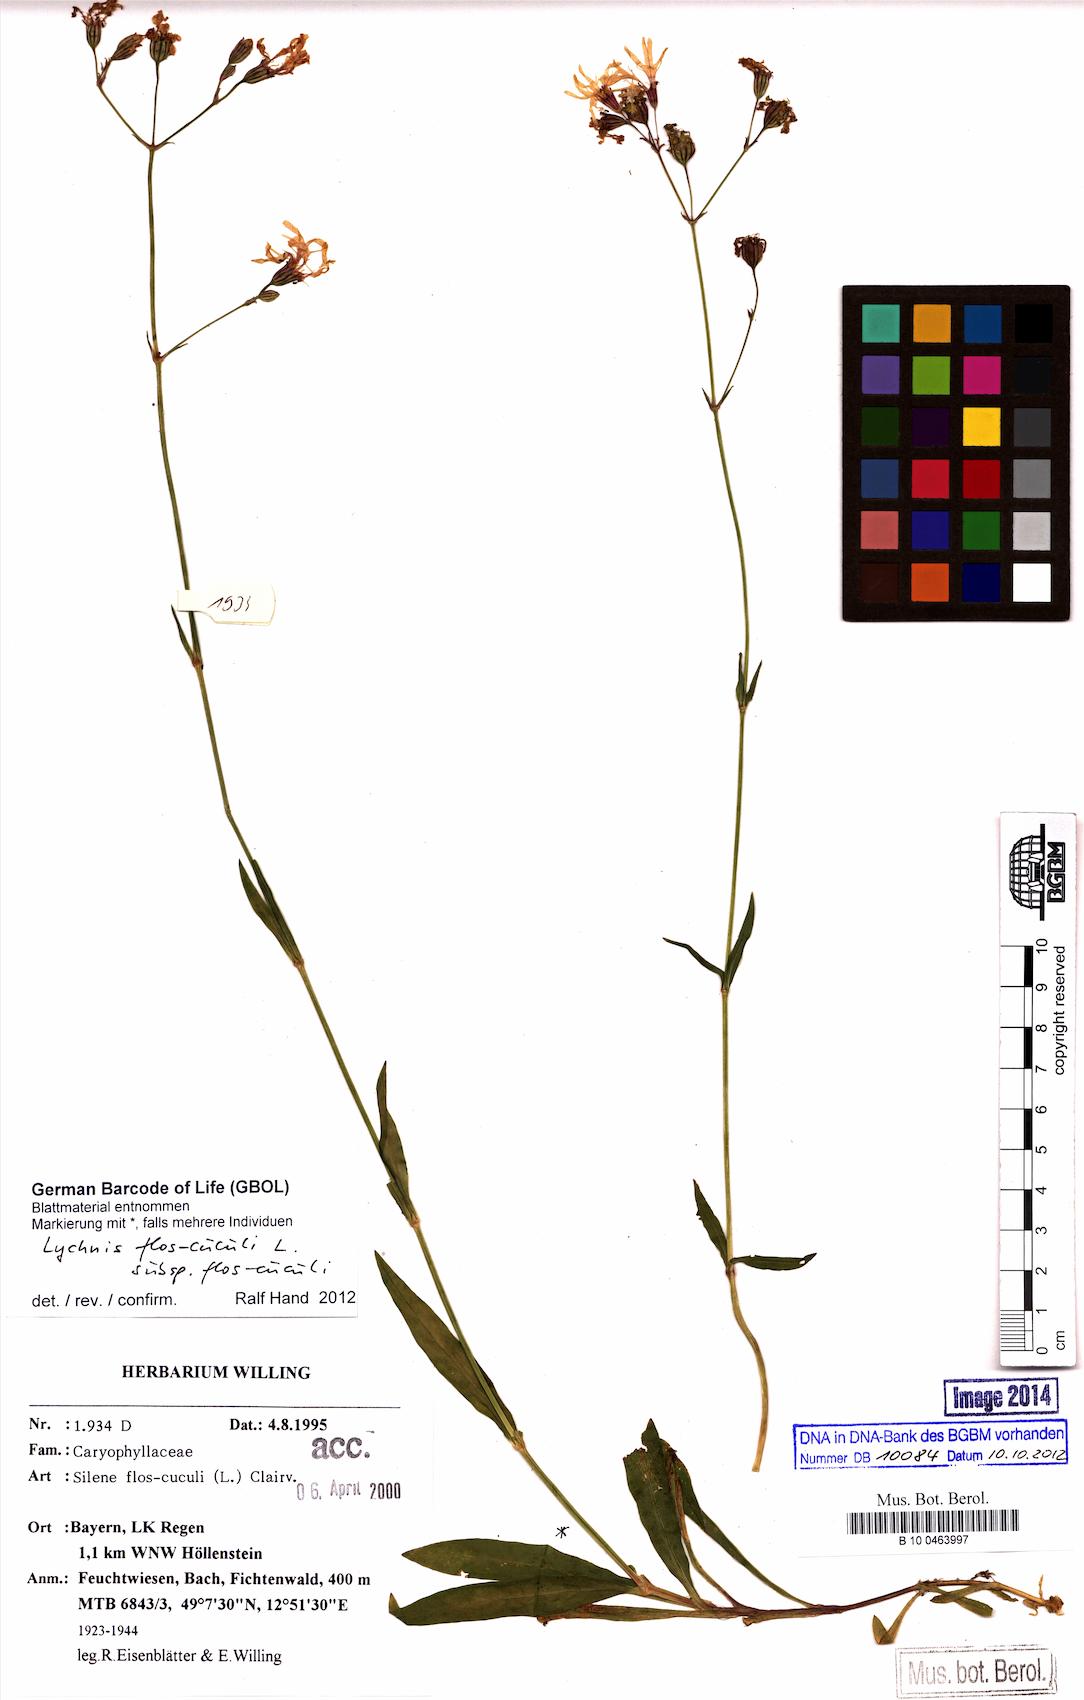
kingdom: Plantae
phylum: Tracheophyta
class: Magnoliopsida
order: Caryophyllales
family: Caryophyllaceae
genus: Silene
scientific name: Silene flos-cuculi
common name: Ragged-robin
